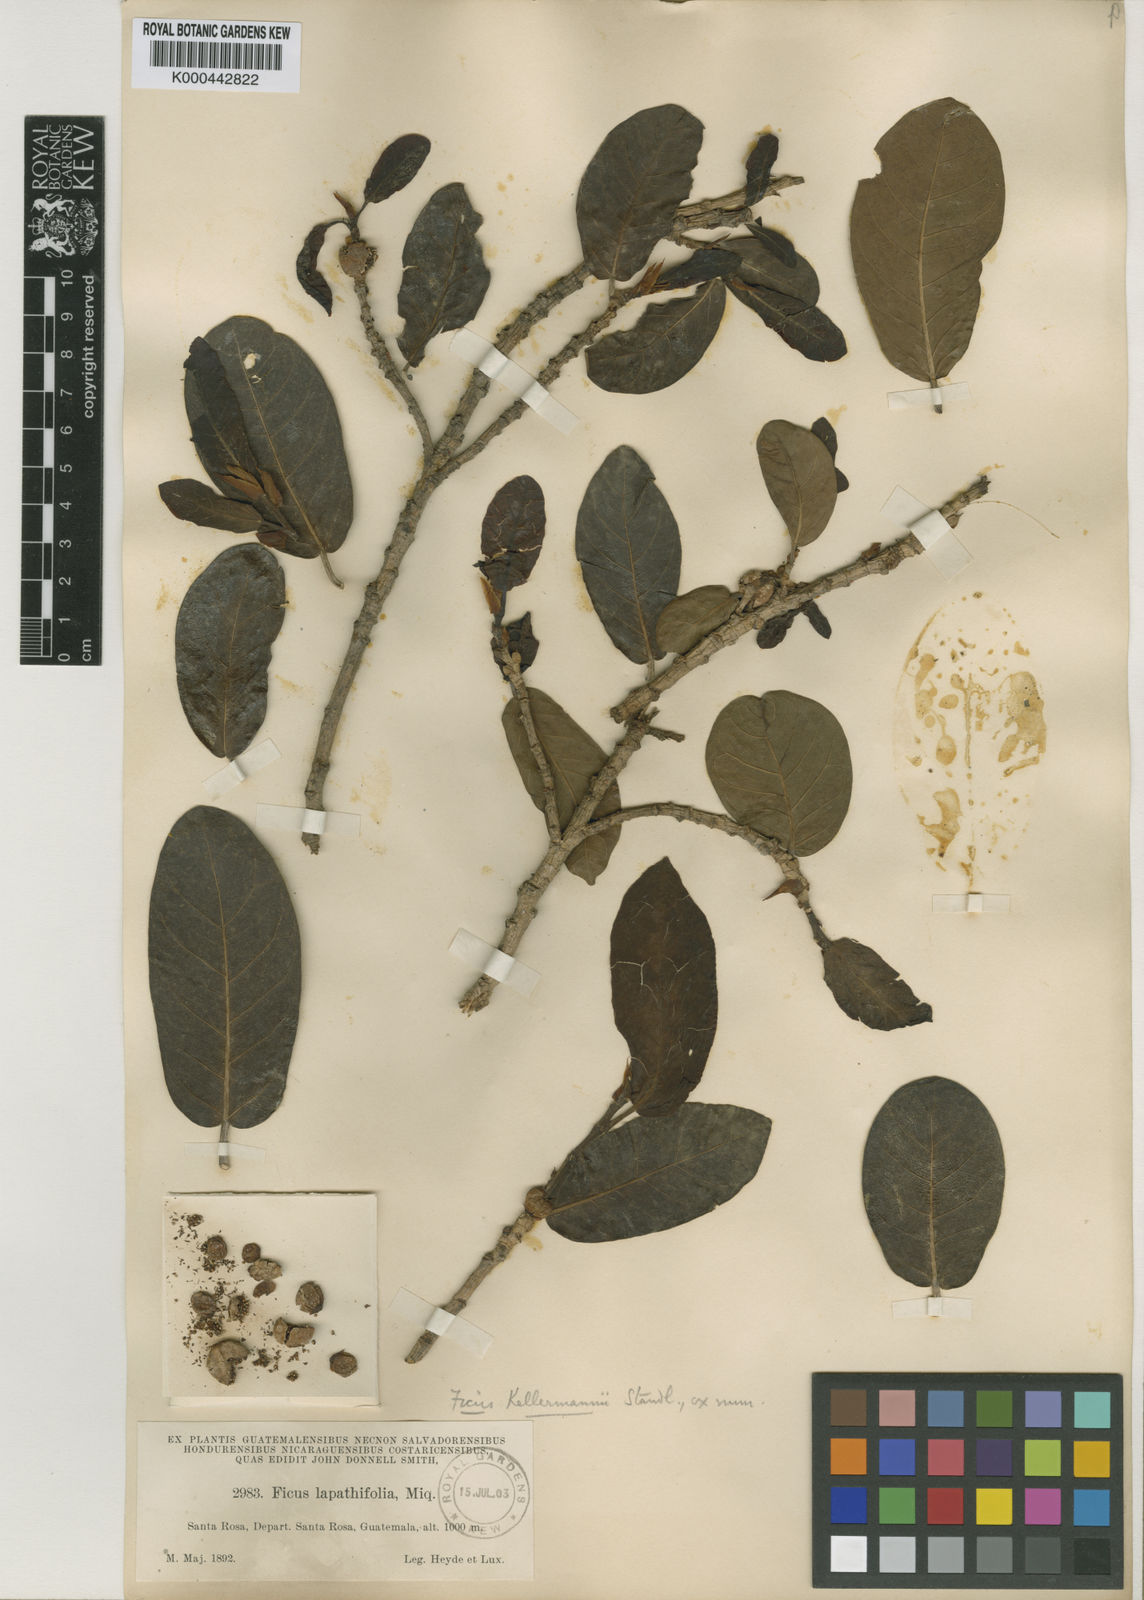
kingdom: Plantae
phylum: Tracheophyta
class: Magnoliopsida
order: Rosales
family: Moraceae
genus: Ficus
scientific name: Ficus costaricana
